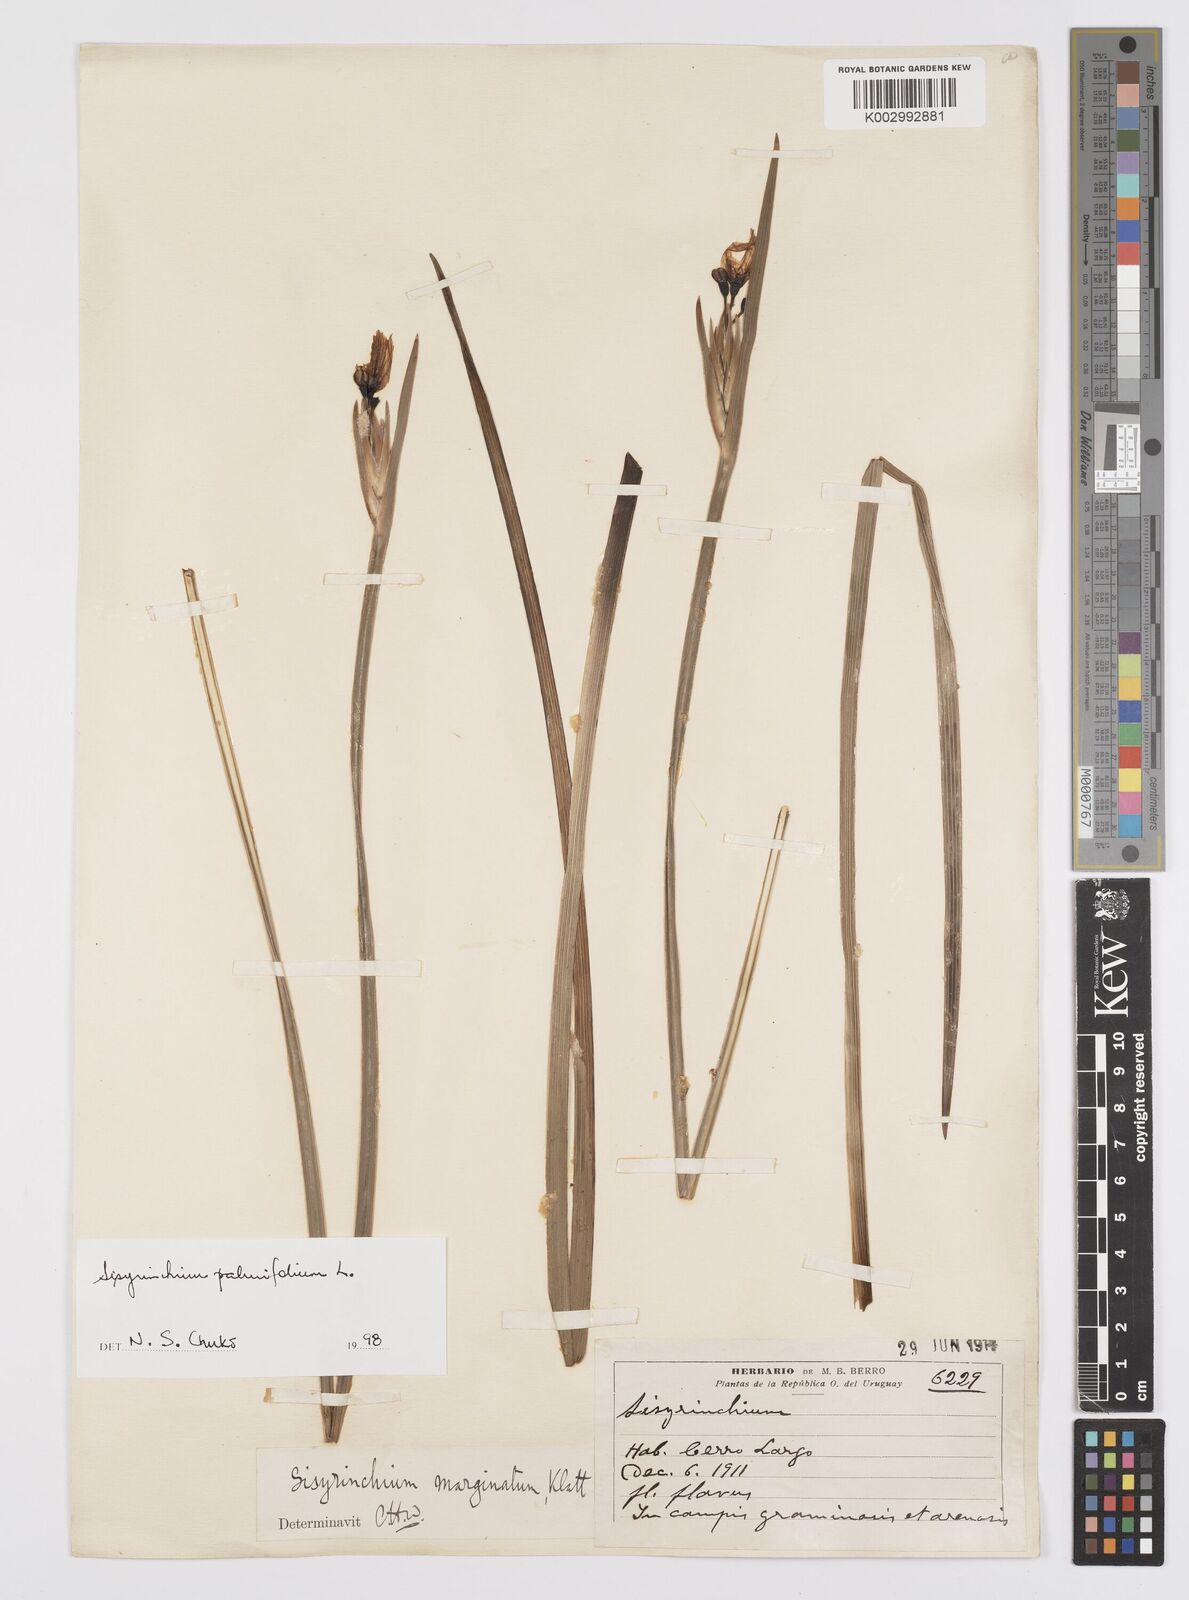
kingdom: Plantae
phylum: Tracheophyta
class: Liliopsida
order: Asparagales
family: Iridaceae
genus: Sisyrinchium
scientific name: Sisyrinchium palmifolium
